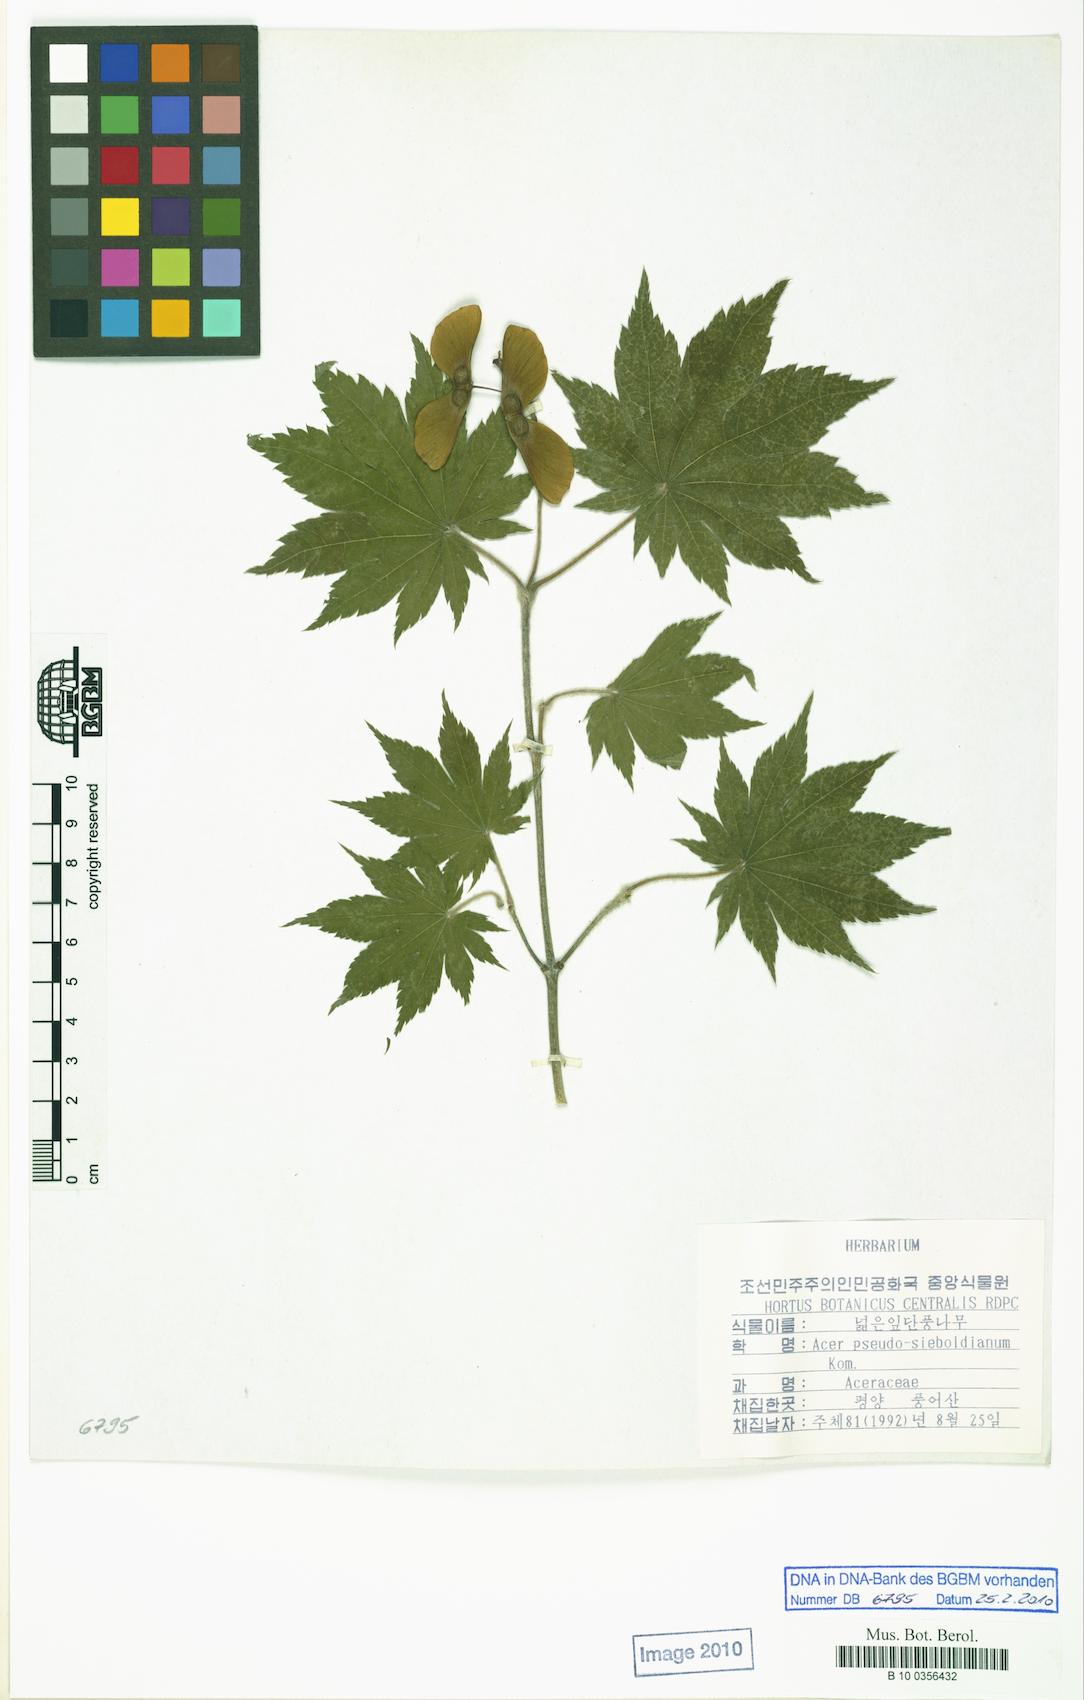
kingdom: Plantae
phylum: Tracheophyta
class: Magnoliopsida
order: Sapindales
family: Sapindaceae
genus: Acer
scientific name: Acer pseudosieboldianum
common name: Korean maple
